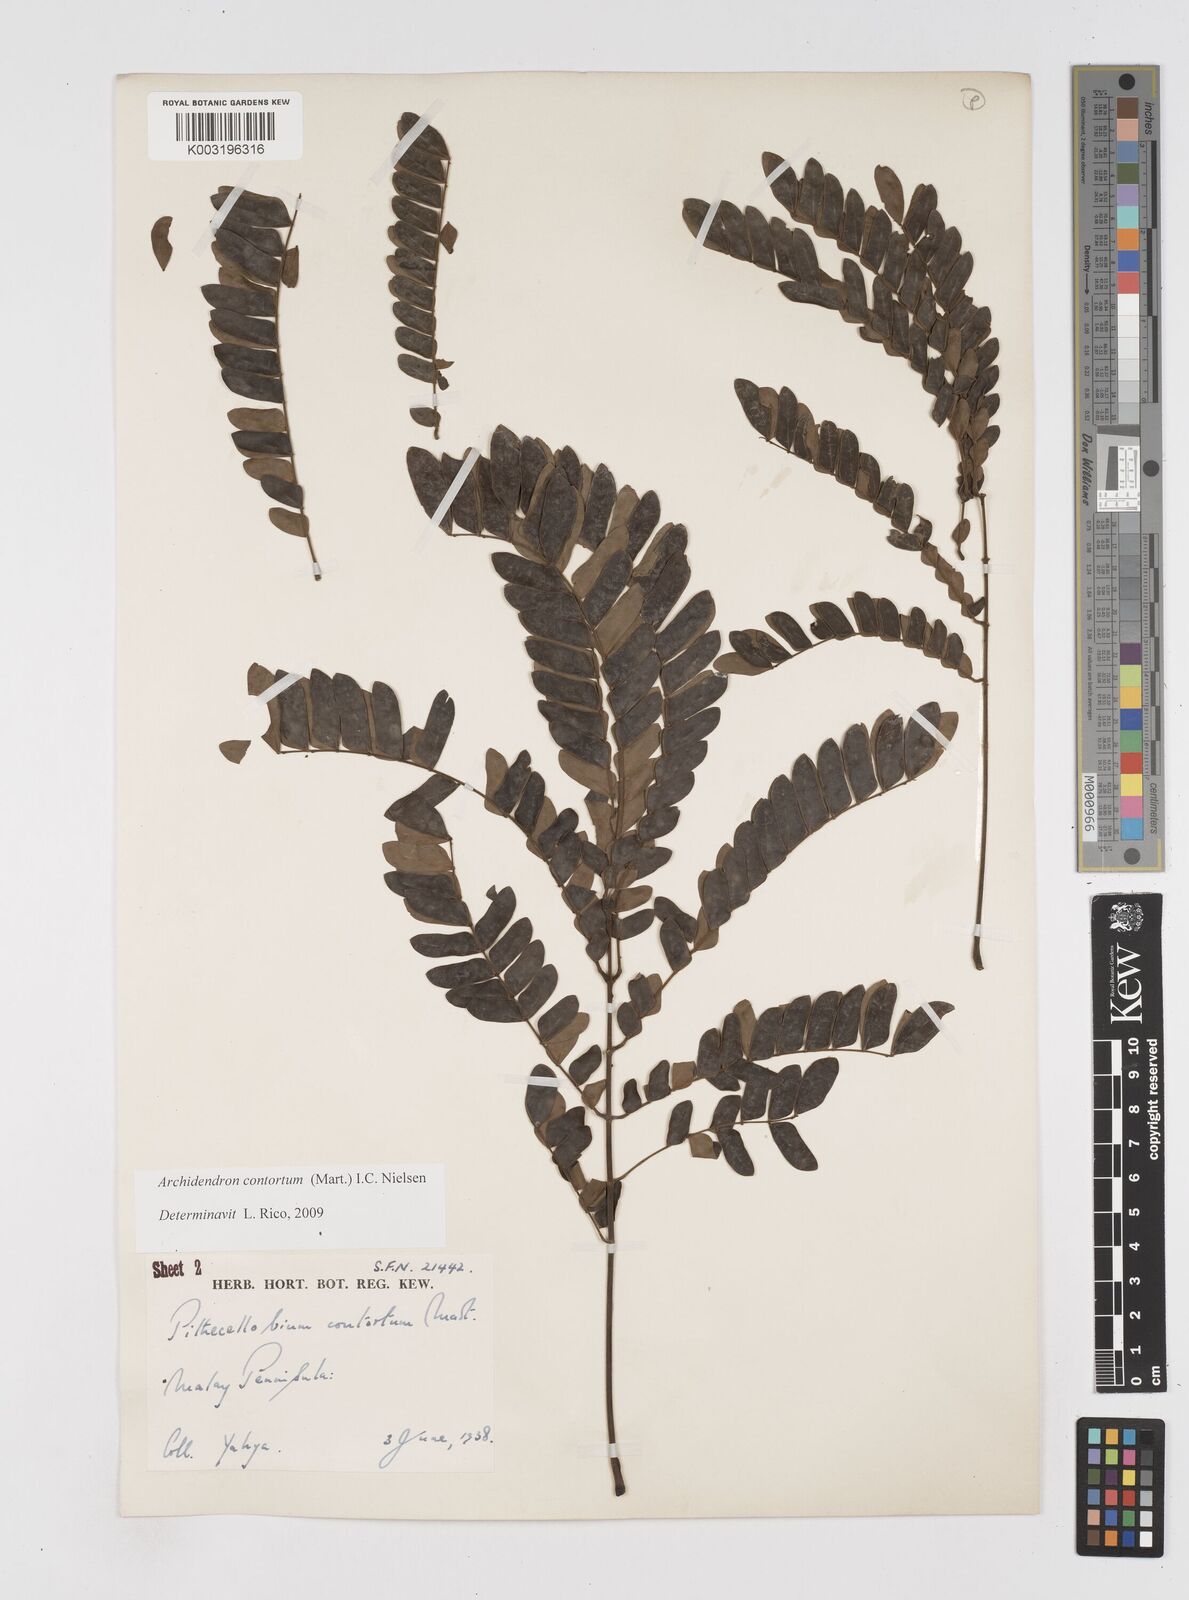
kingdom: Plantae
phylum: Tracheophyta
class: Magnoliopsida
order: Fabales
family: Fabaceae
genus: Archidendron
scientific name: Archidendron contortum
